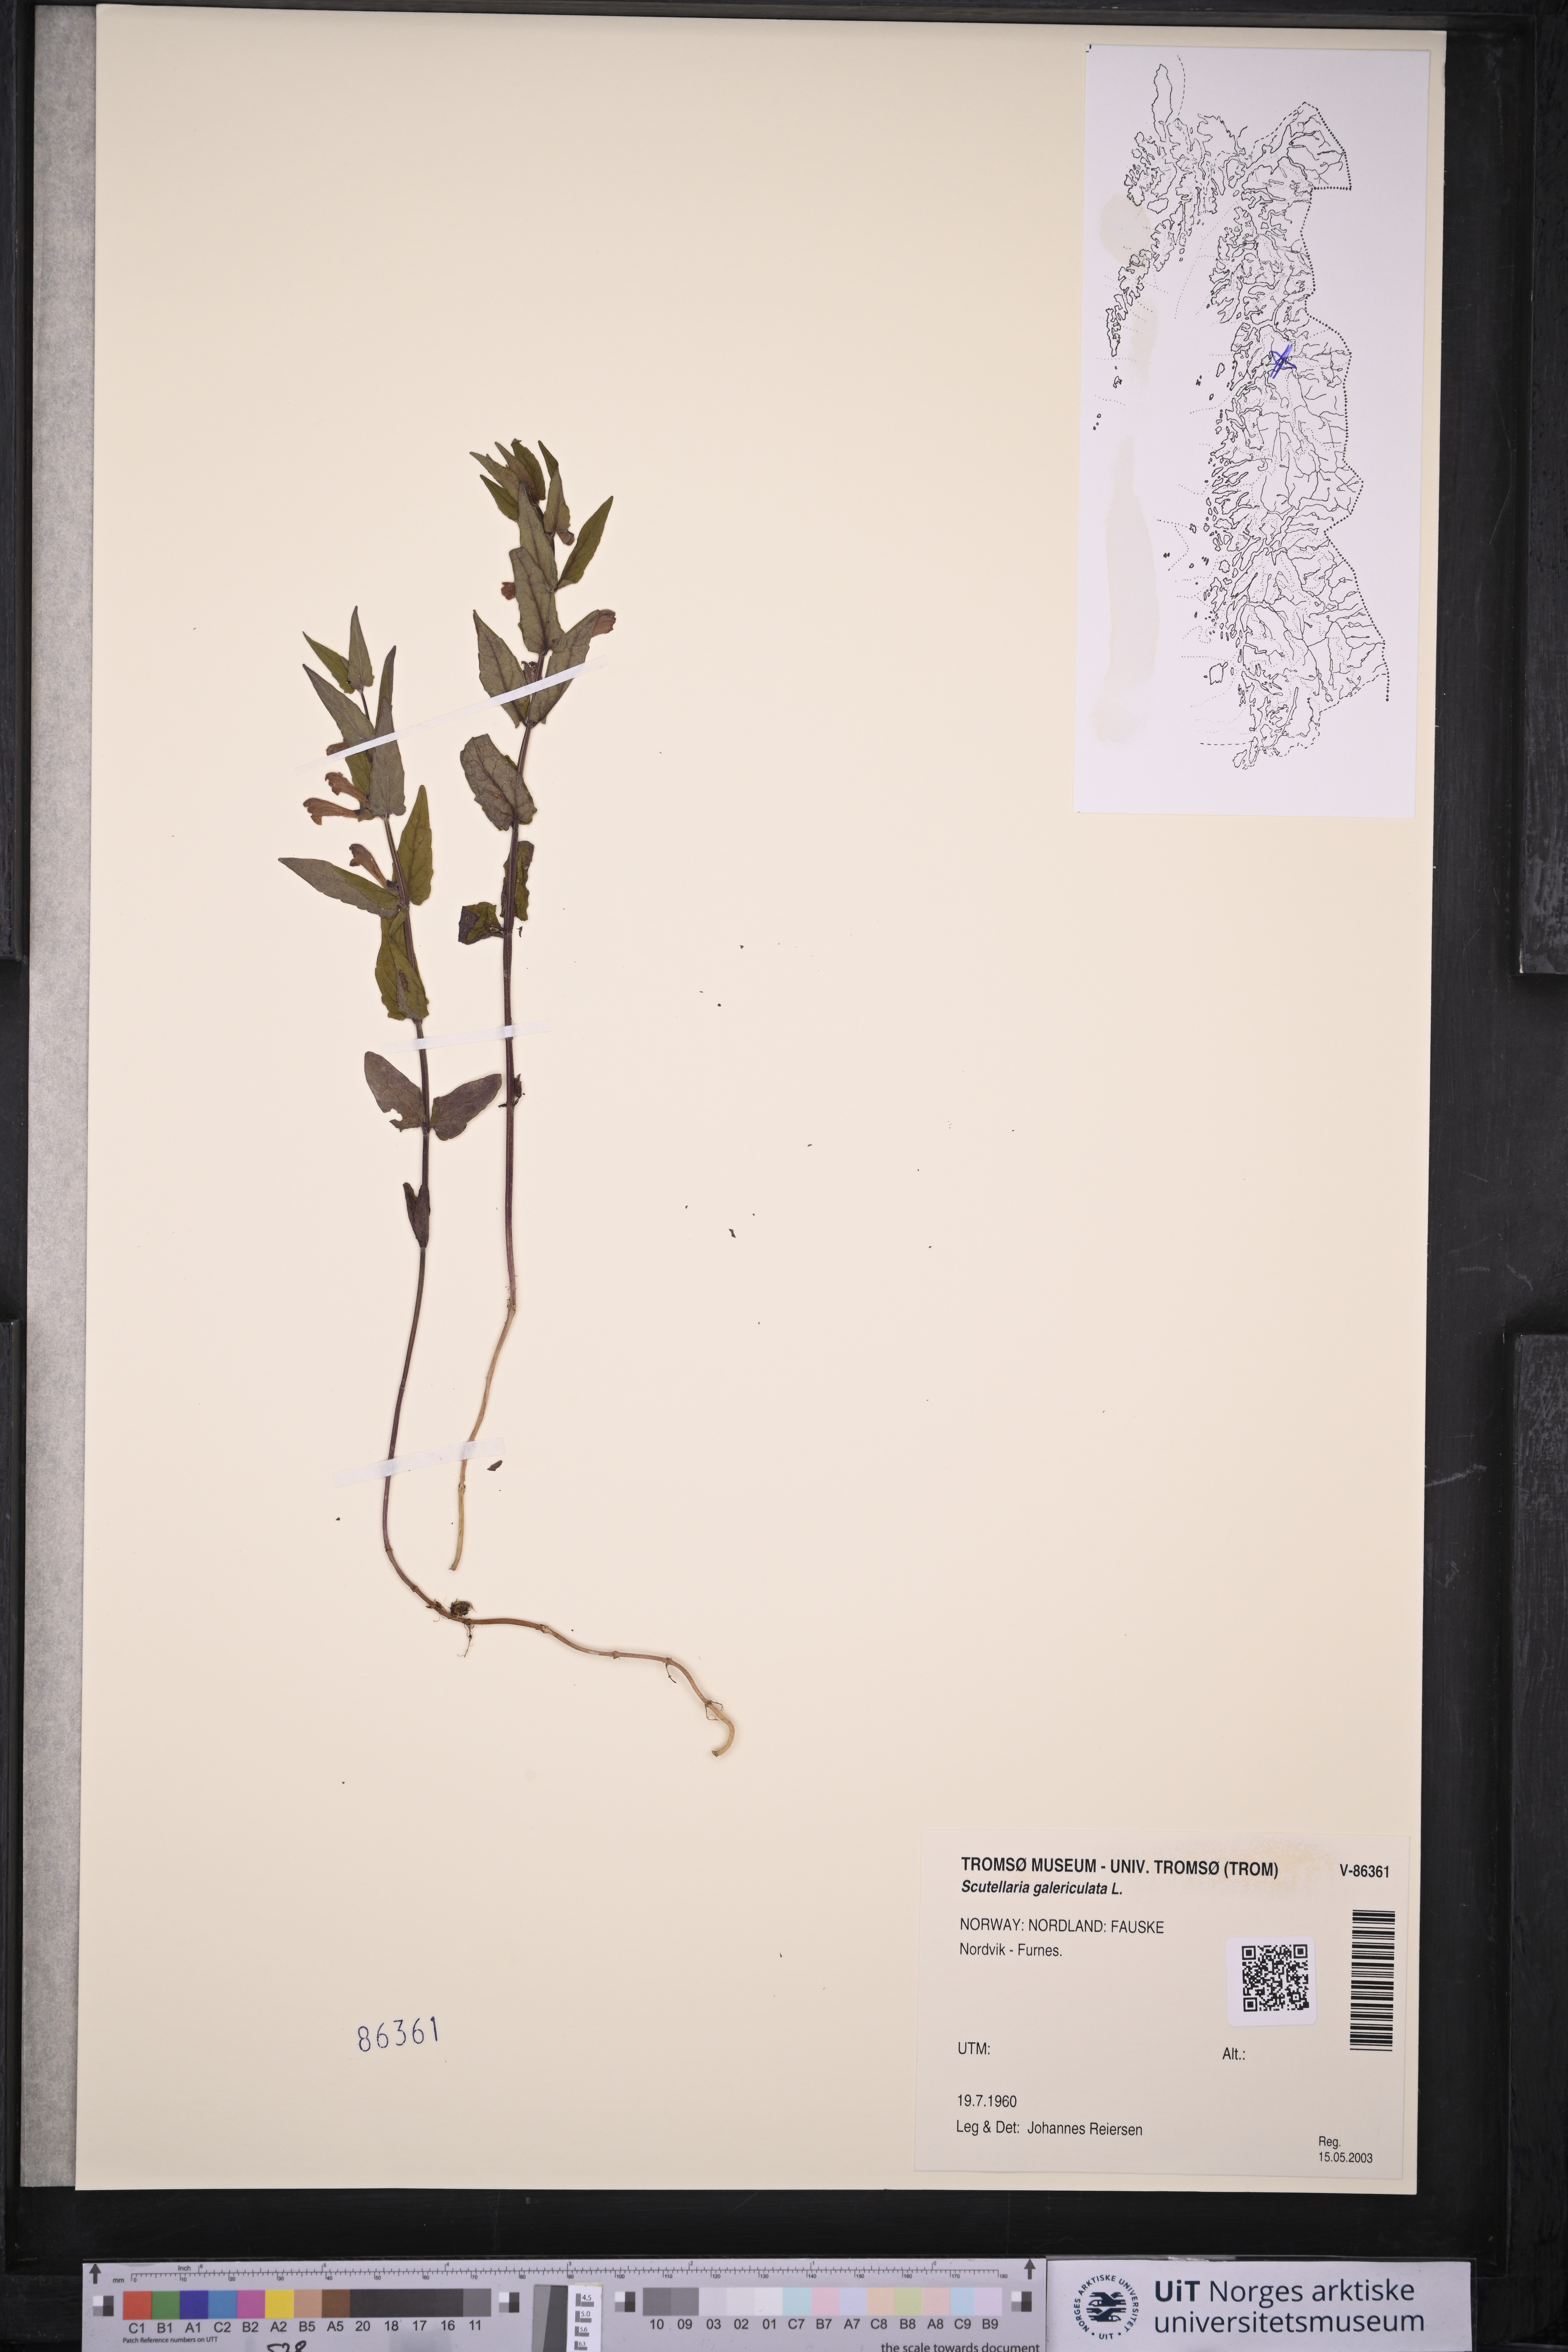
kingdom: Plantae
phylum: Tracheophyta
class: Magnoliopsida
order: Lamiales
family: Lamiaceae
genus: Scutellaria
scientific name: Scutellaria galericulata
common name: Skullcap
